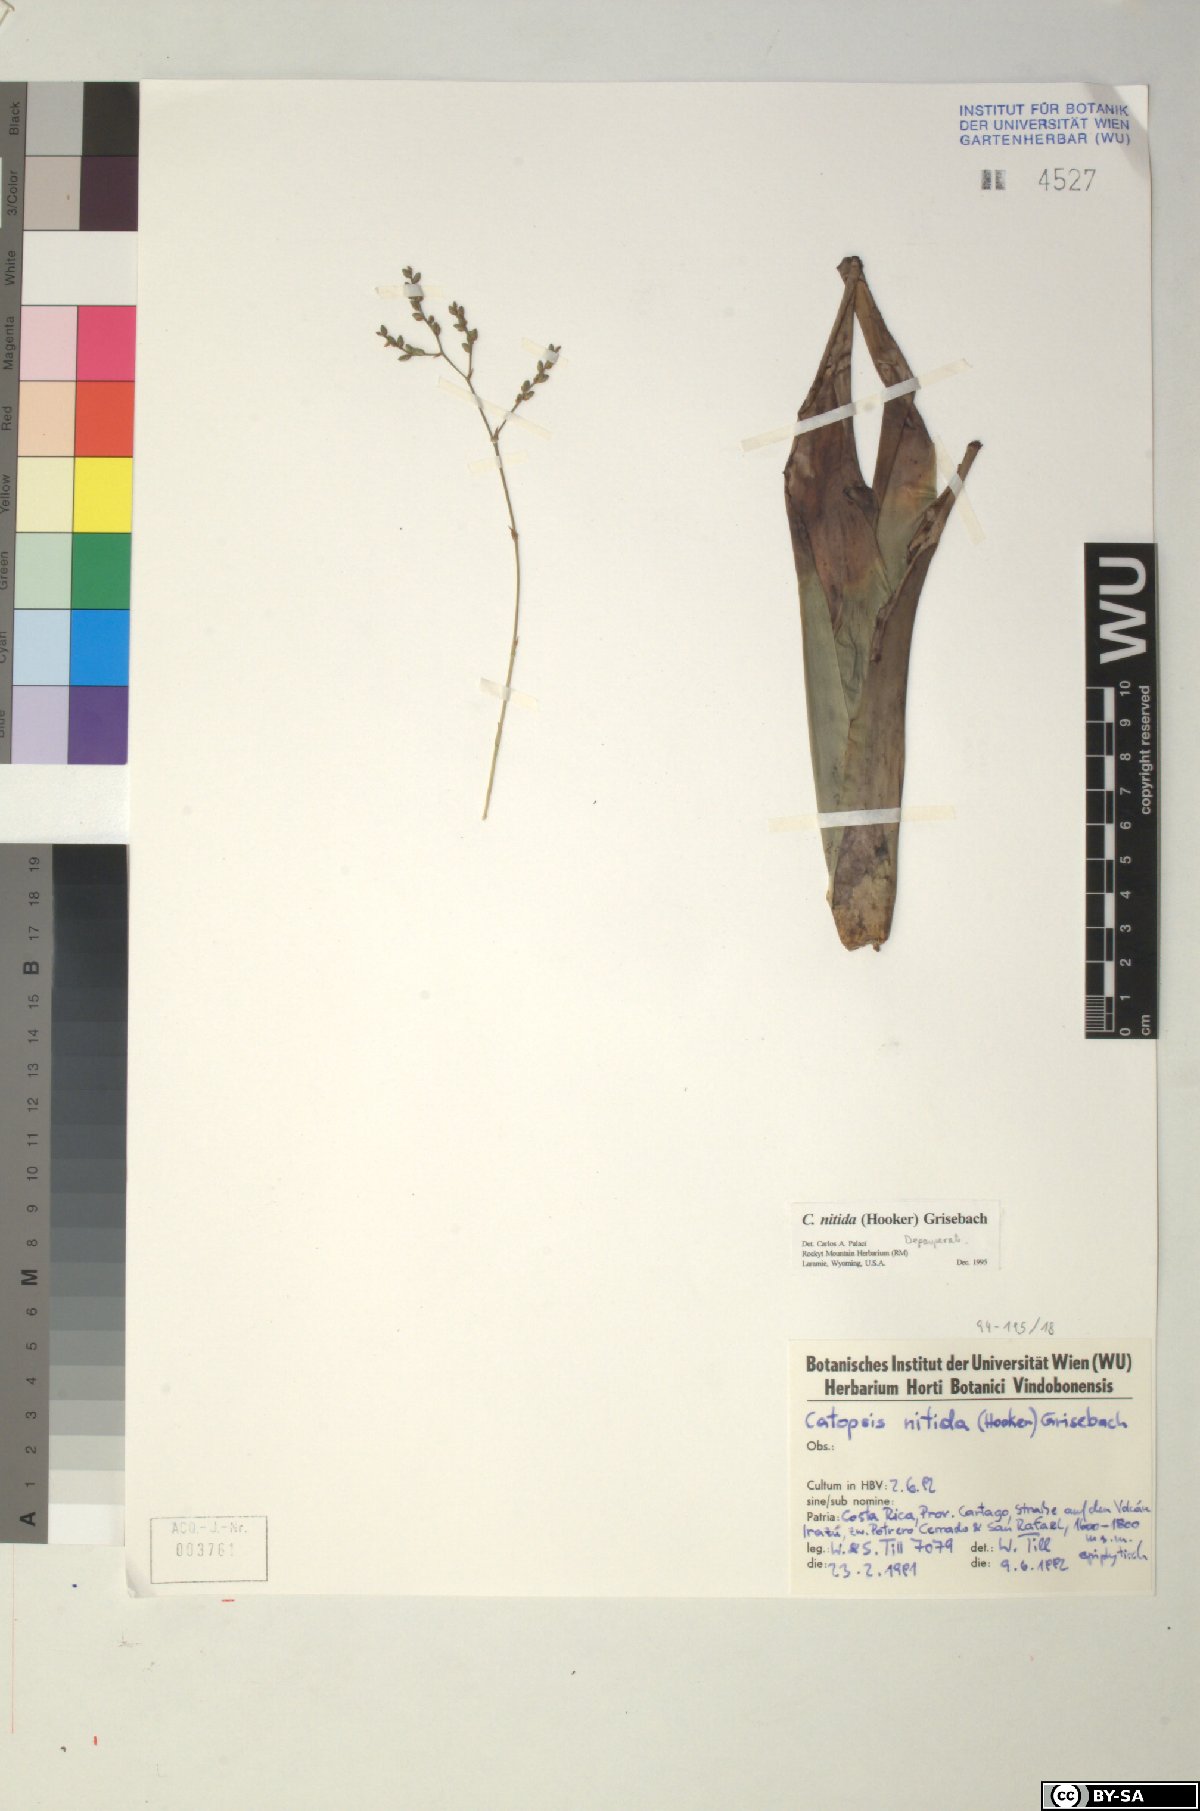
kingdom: Plantae
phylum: Tracheophyta
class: Liliopsida
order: Poales
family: Bromeliaceae
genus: Catopsis
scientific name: Catopsis nitida
